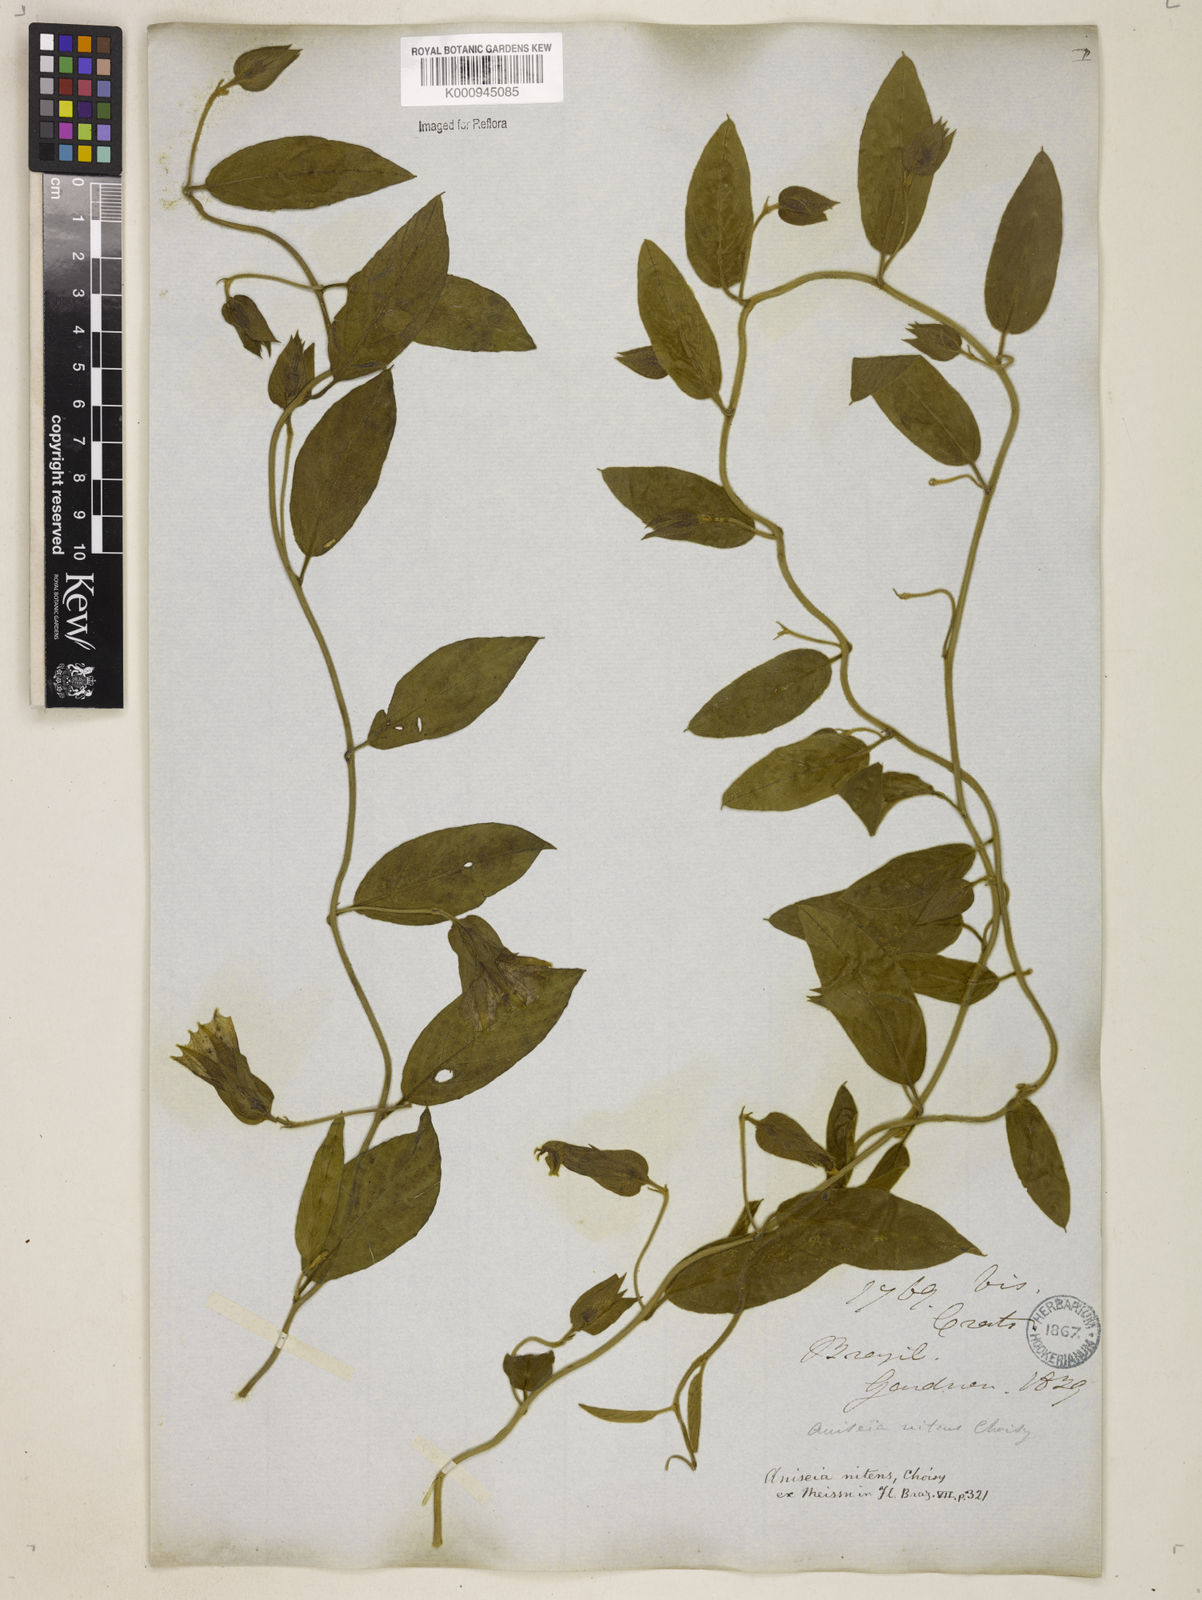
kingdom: Plantae
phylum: Tracheophyta
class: Magnoliopsida
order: Solanales
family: Convolvulaceae
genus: Aniseia
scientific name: Aniseia martinicensis
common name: Kulayadambu
